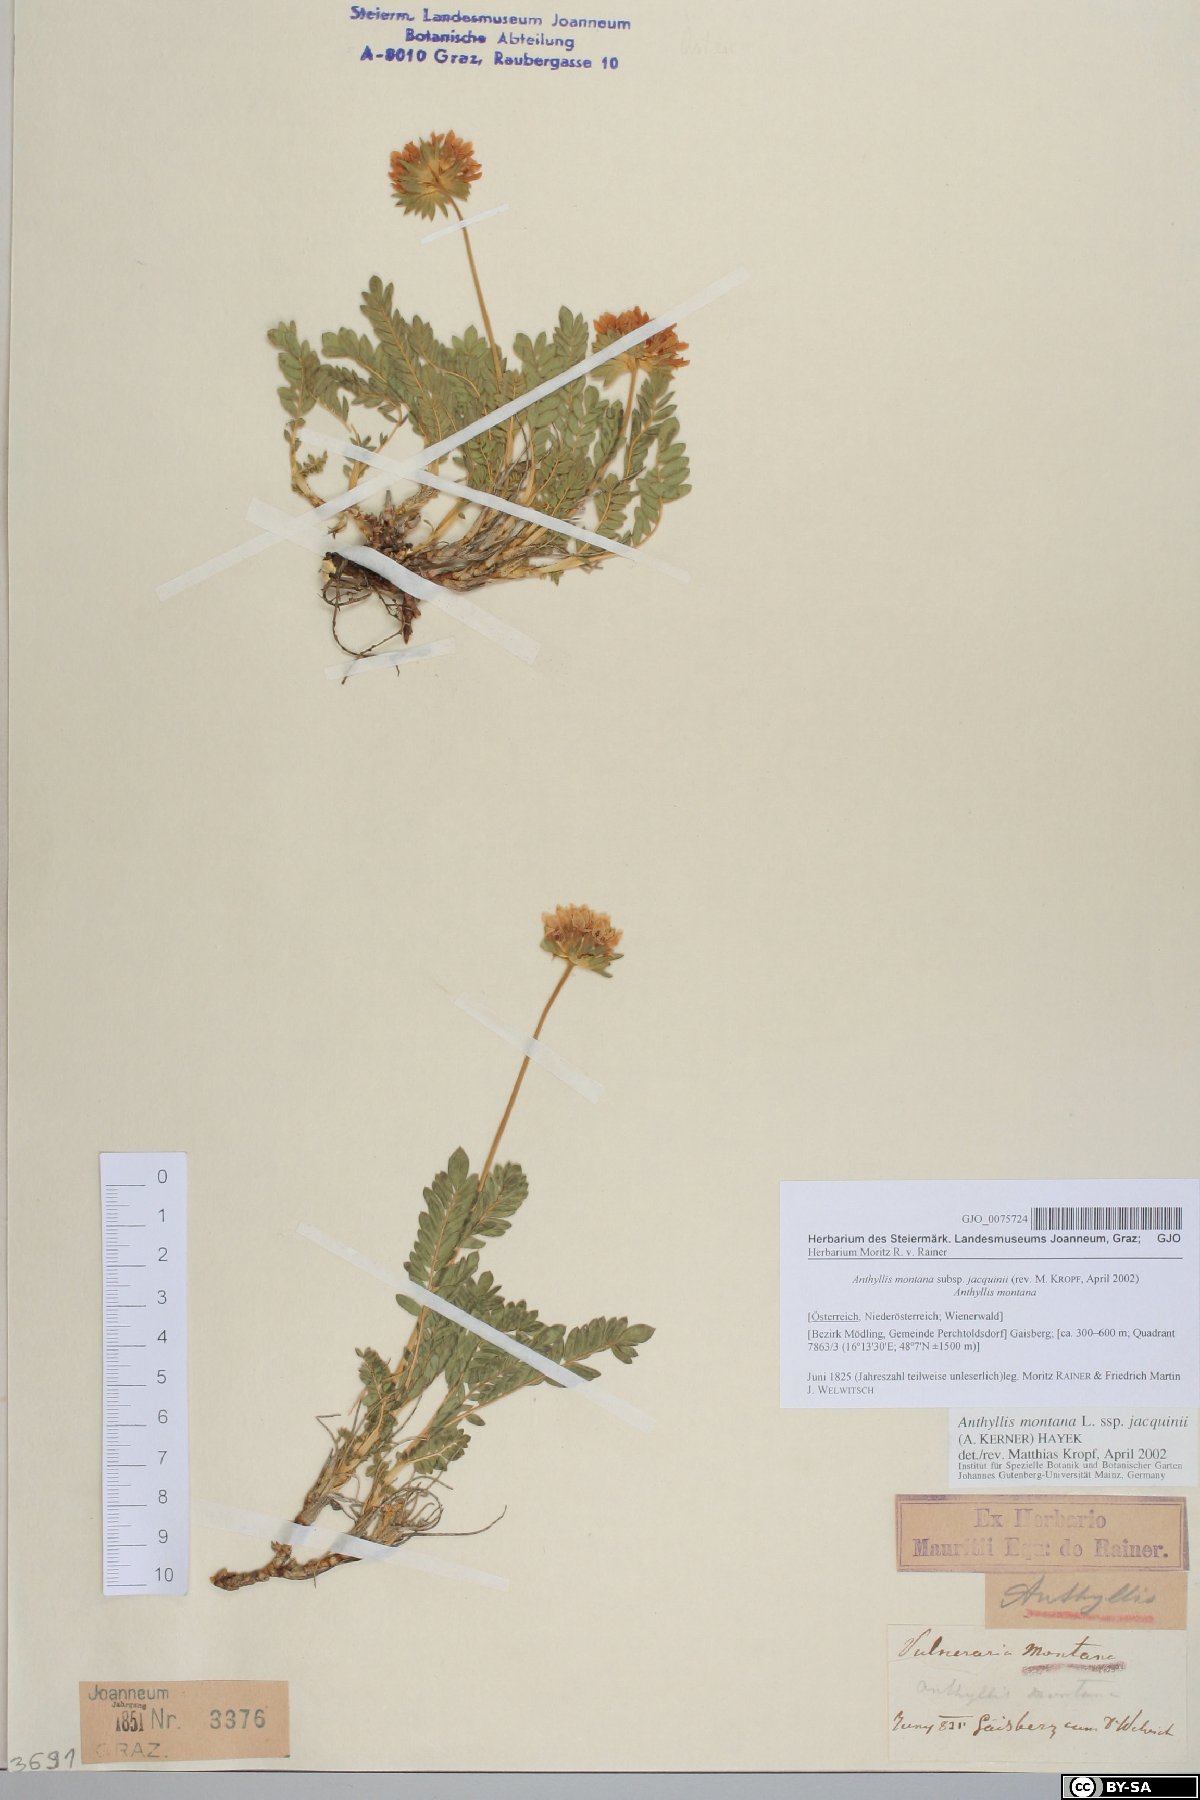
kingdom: Plantae
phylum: Tracheophyta
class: Magnoliopsida
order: Fabales
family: Fabaceae
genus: Anthyllis
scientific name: Anthyllis montana
